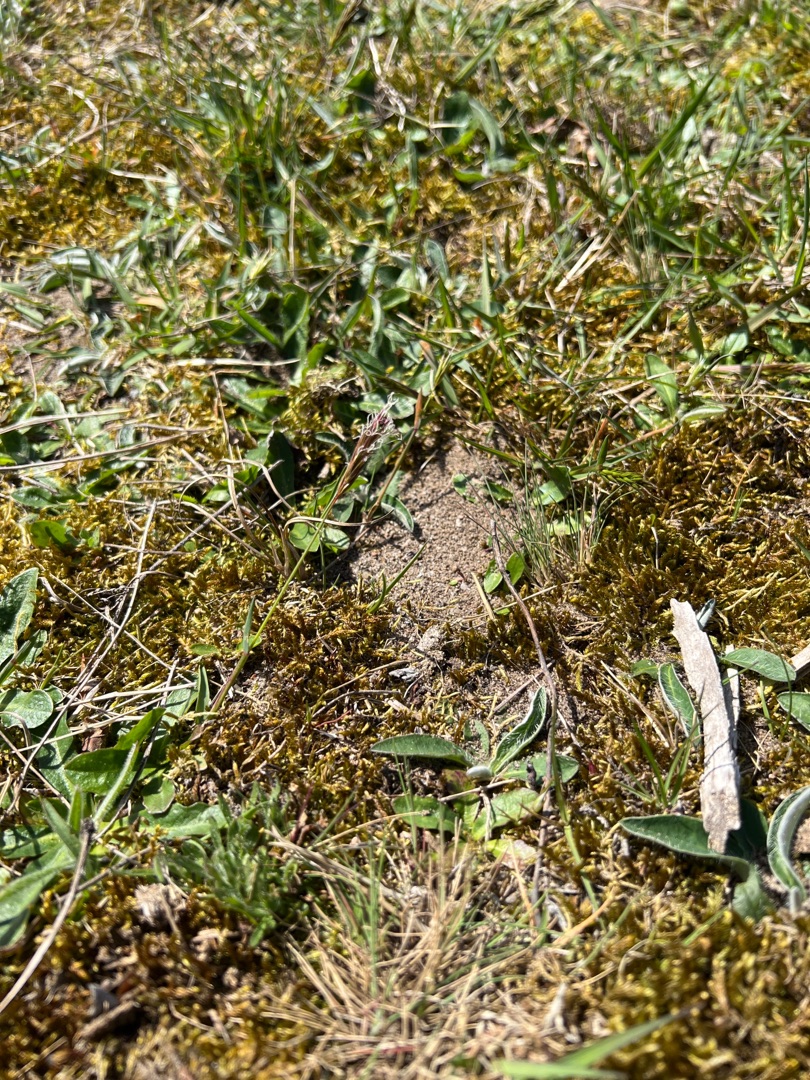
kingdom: Plantae
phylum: Tracheophyta
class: Liliopsida
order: Poales
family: Poaceae
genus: Anthoxanthum
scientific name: Anthoxanthum odoratum
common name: Vellugtende gulaks
